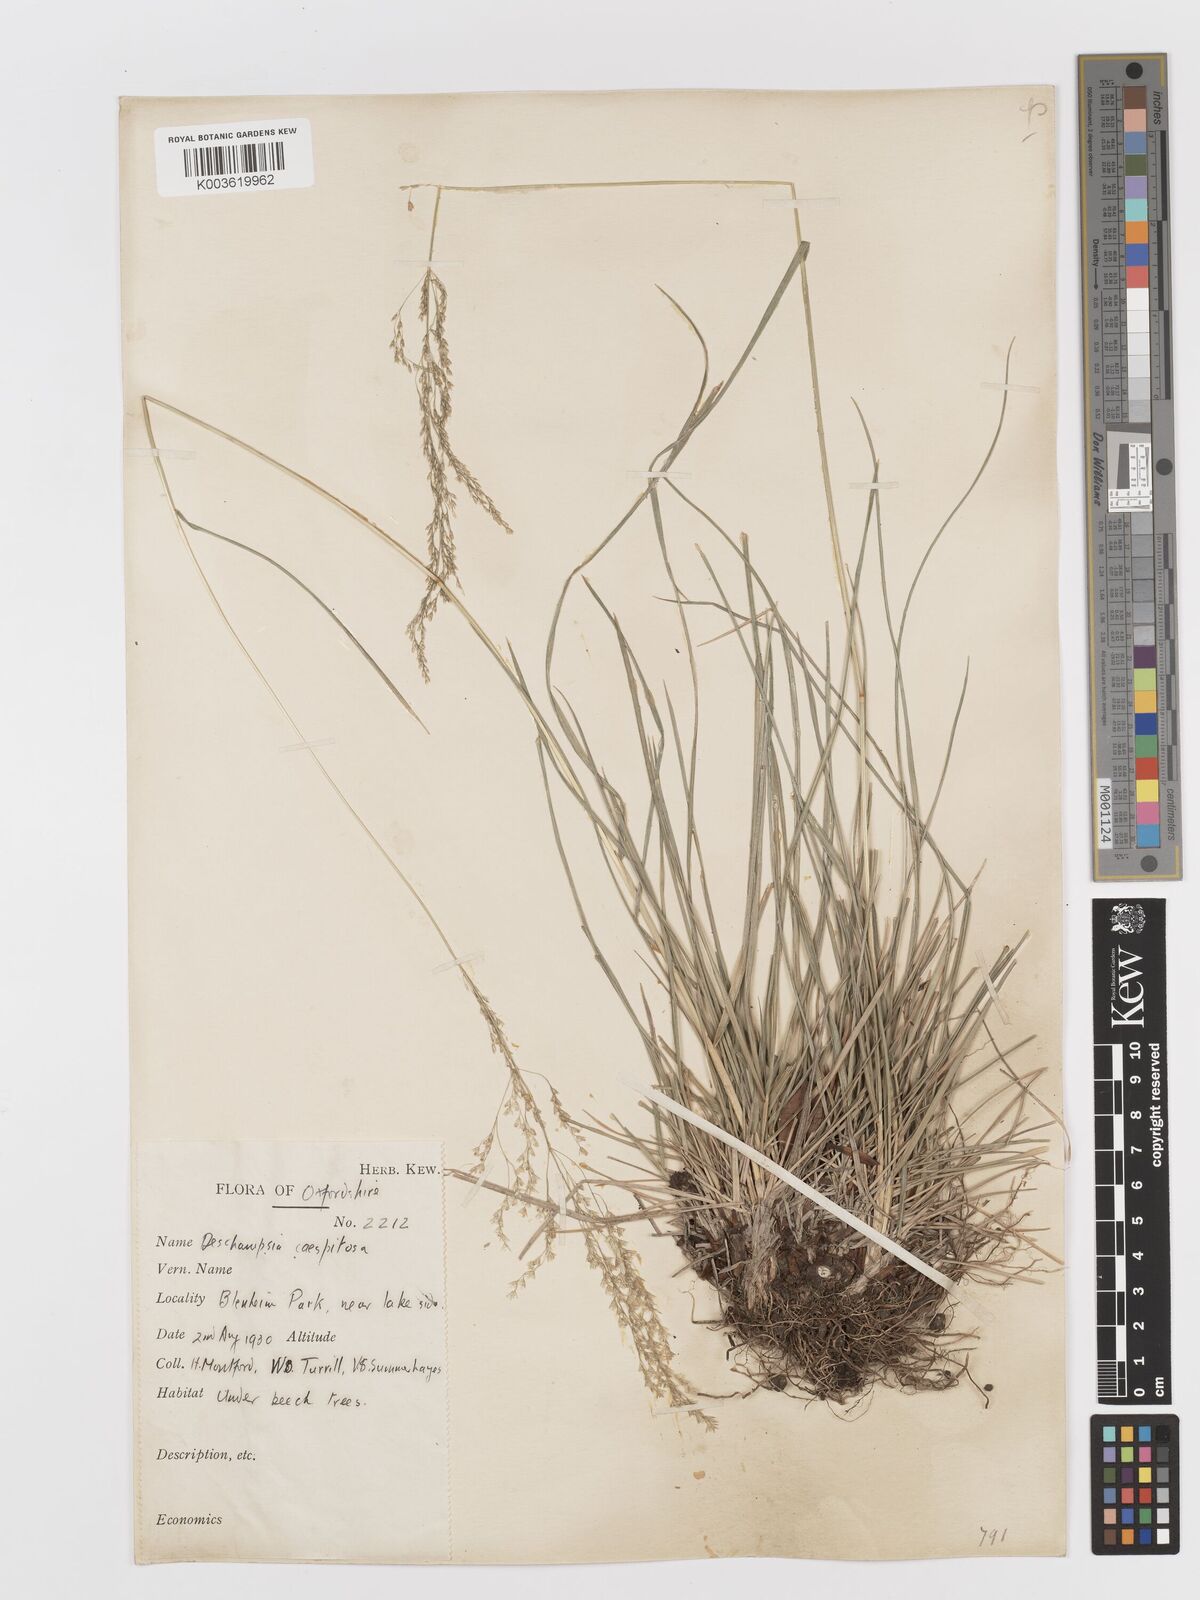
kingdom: Plantae
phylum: Tracheophyta
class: Liliopsida
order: Poales
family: Poaceae
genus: Deschampsia
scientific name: Deschampsia cespitosa
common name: Tufted hair-grass
